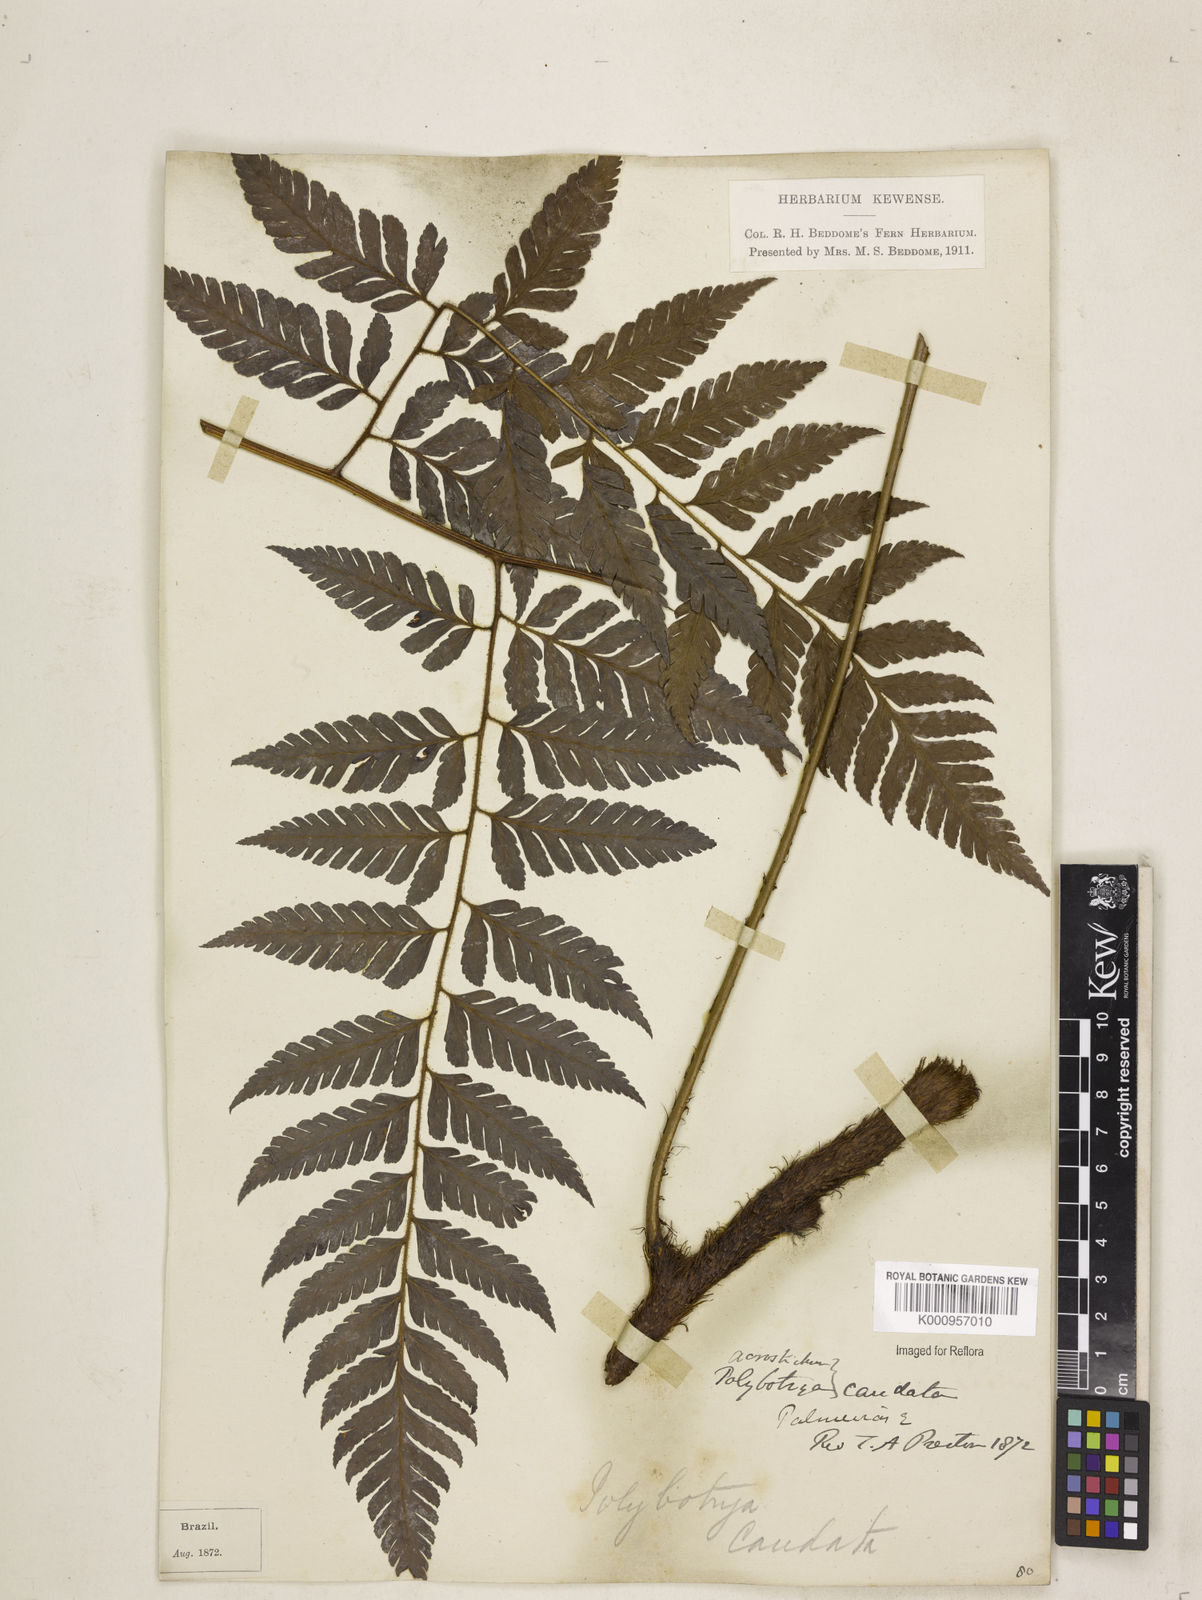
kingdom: Plantae
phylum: Tracheophyta
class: Polypodiopsida
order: Polypodiales
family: Dryopteridaceae
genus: Polybotrya
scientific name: Polybotrya caudata
